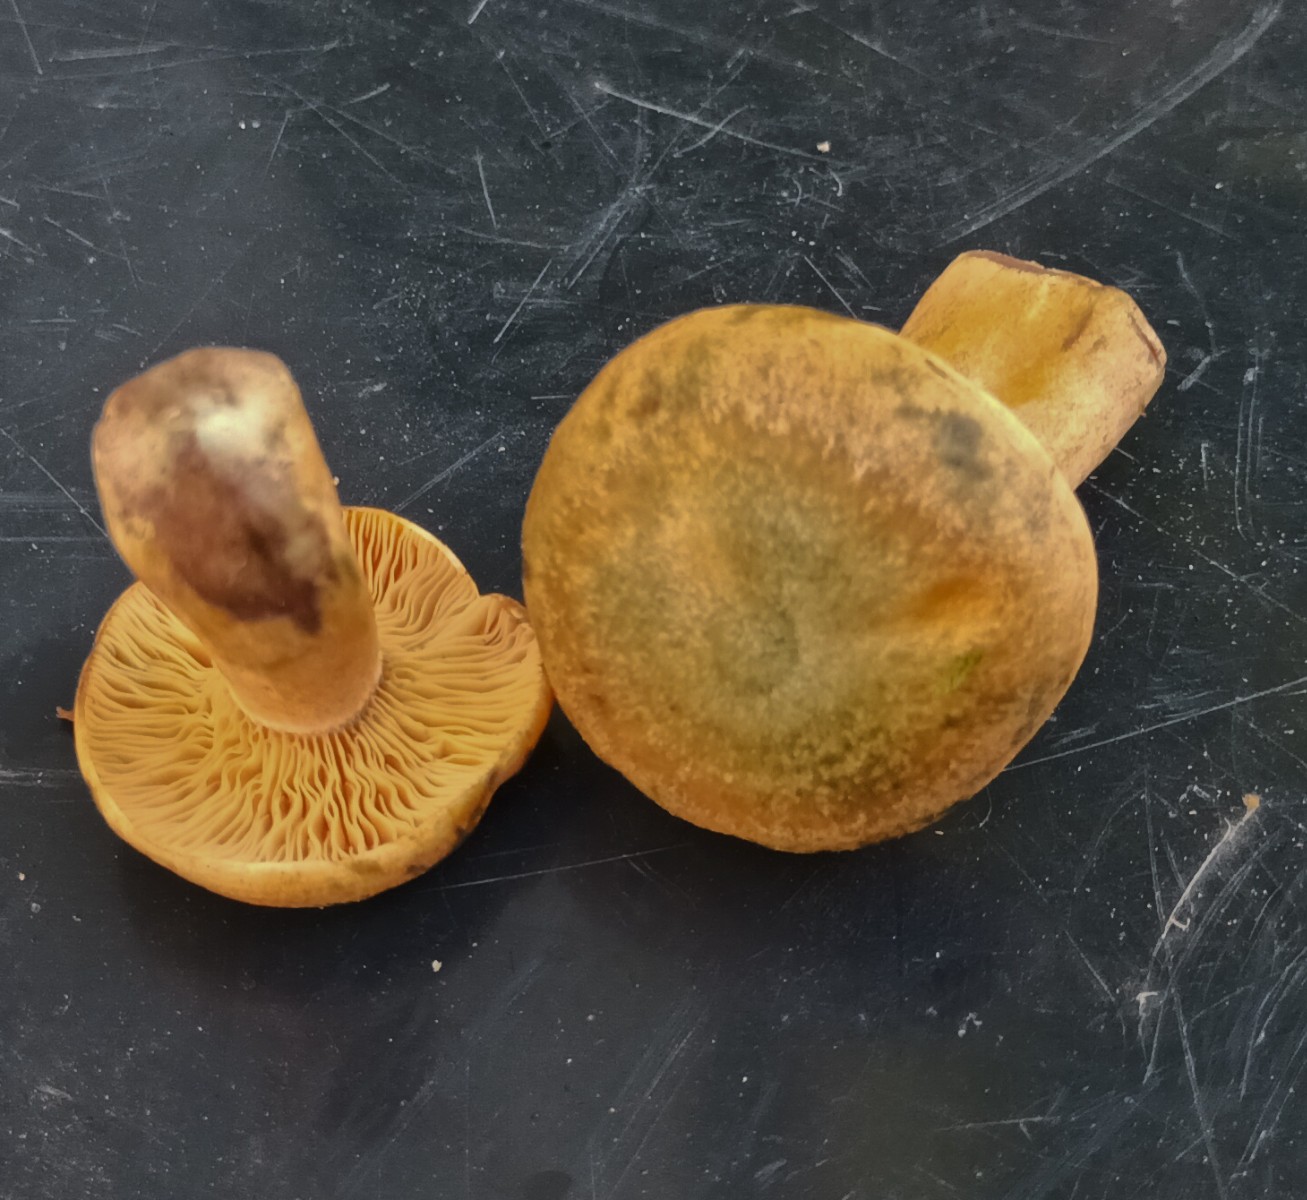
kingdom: Fungi
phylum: Basidiomycota
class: Agaricomycetes
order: Russulales
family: Russulaceae
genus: Lactarius
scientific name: Lactarius
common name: mælkehat
